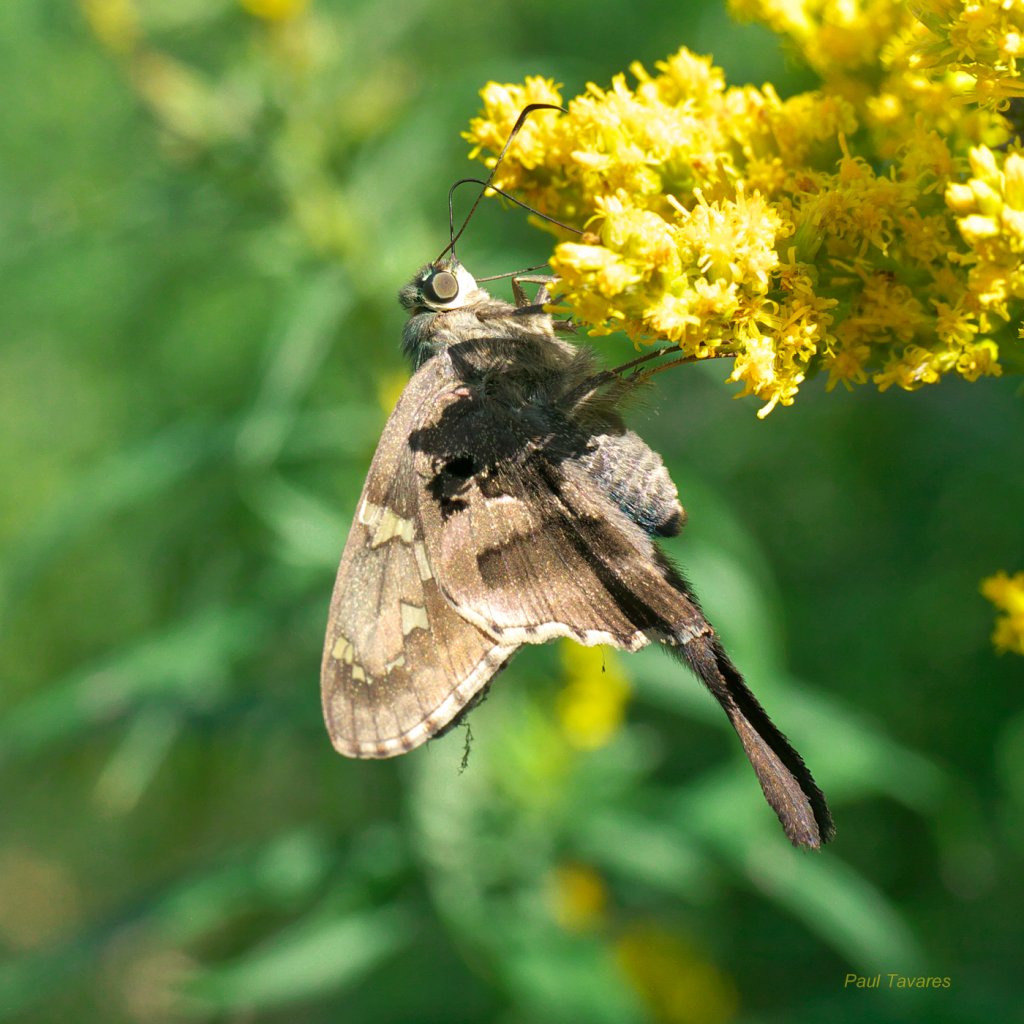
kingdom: Animalia
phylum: Arthropoda
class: Insecta
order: Lepidoptera
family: Hesperiidae
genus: Urbanus
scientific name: Urbanus proteus
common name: Long-tailed Skipper
